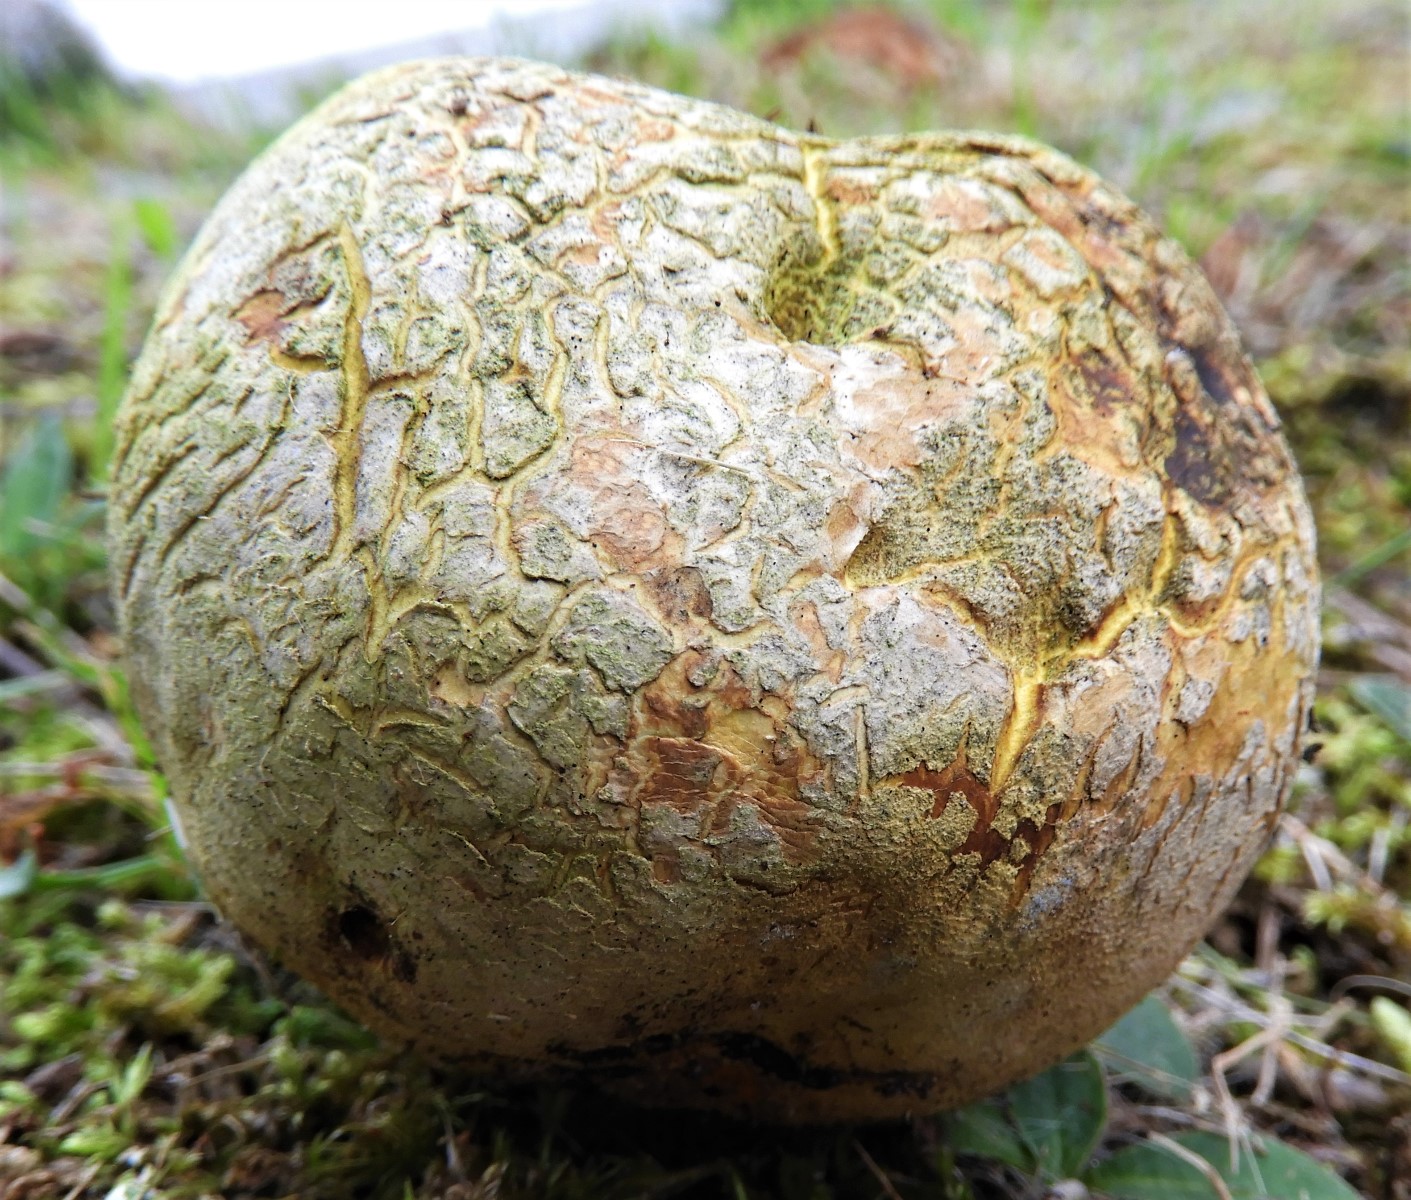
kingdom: Fungi
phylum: Basidiomycota
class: Agaricomycetes
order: Boletales
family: Sclerodermataceae
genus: Scleroderma
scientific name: Scleroderma citrinum
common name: almindelig bruskbold
